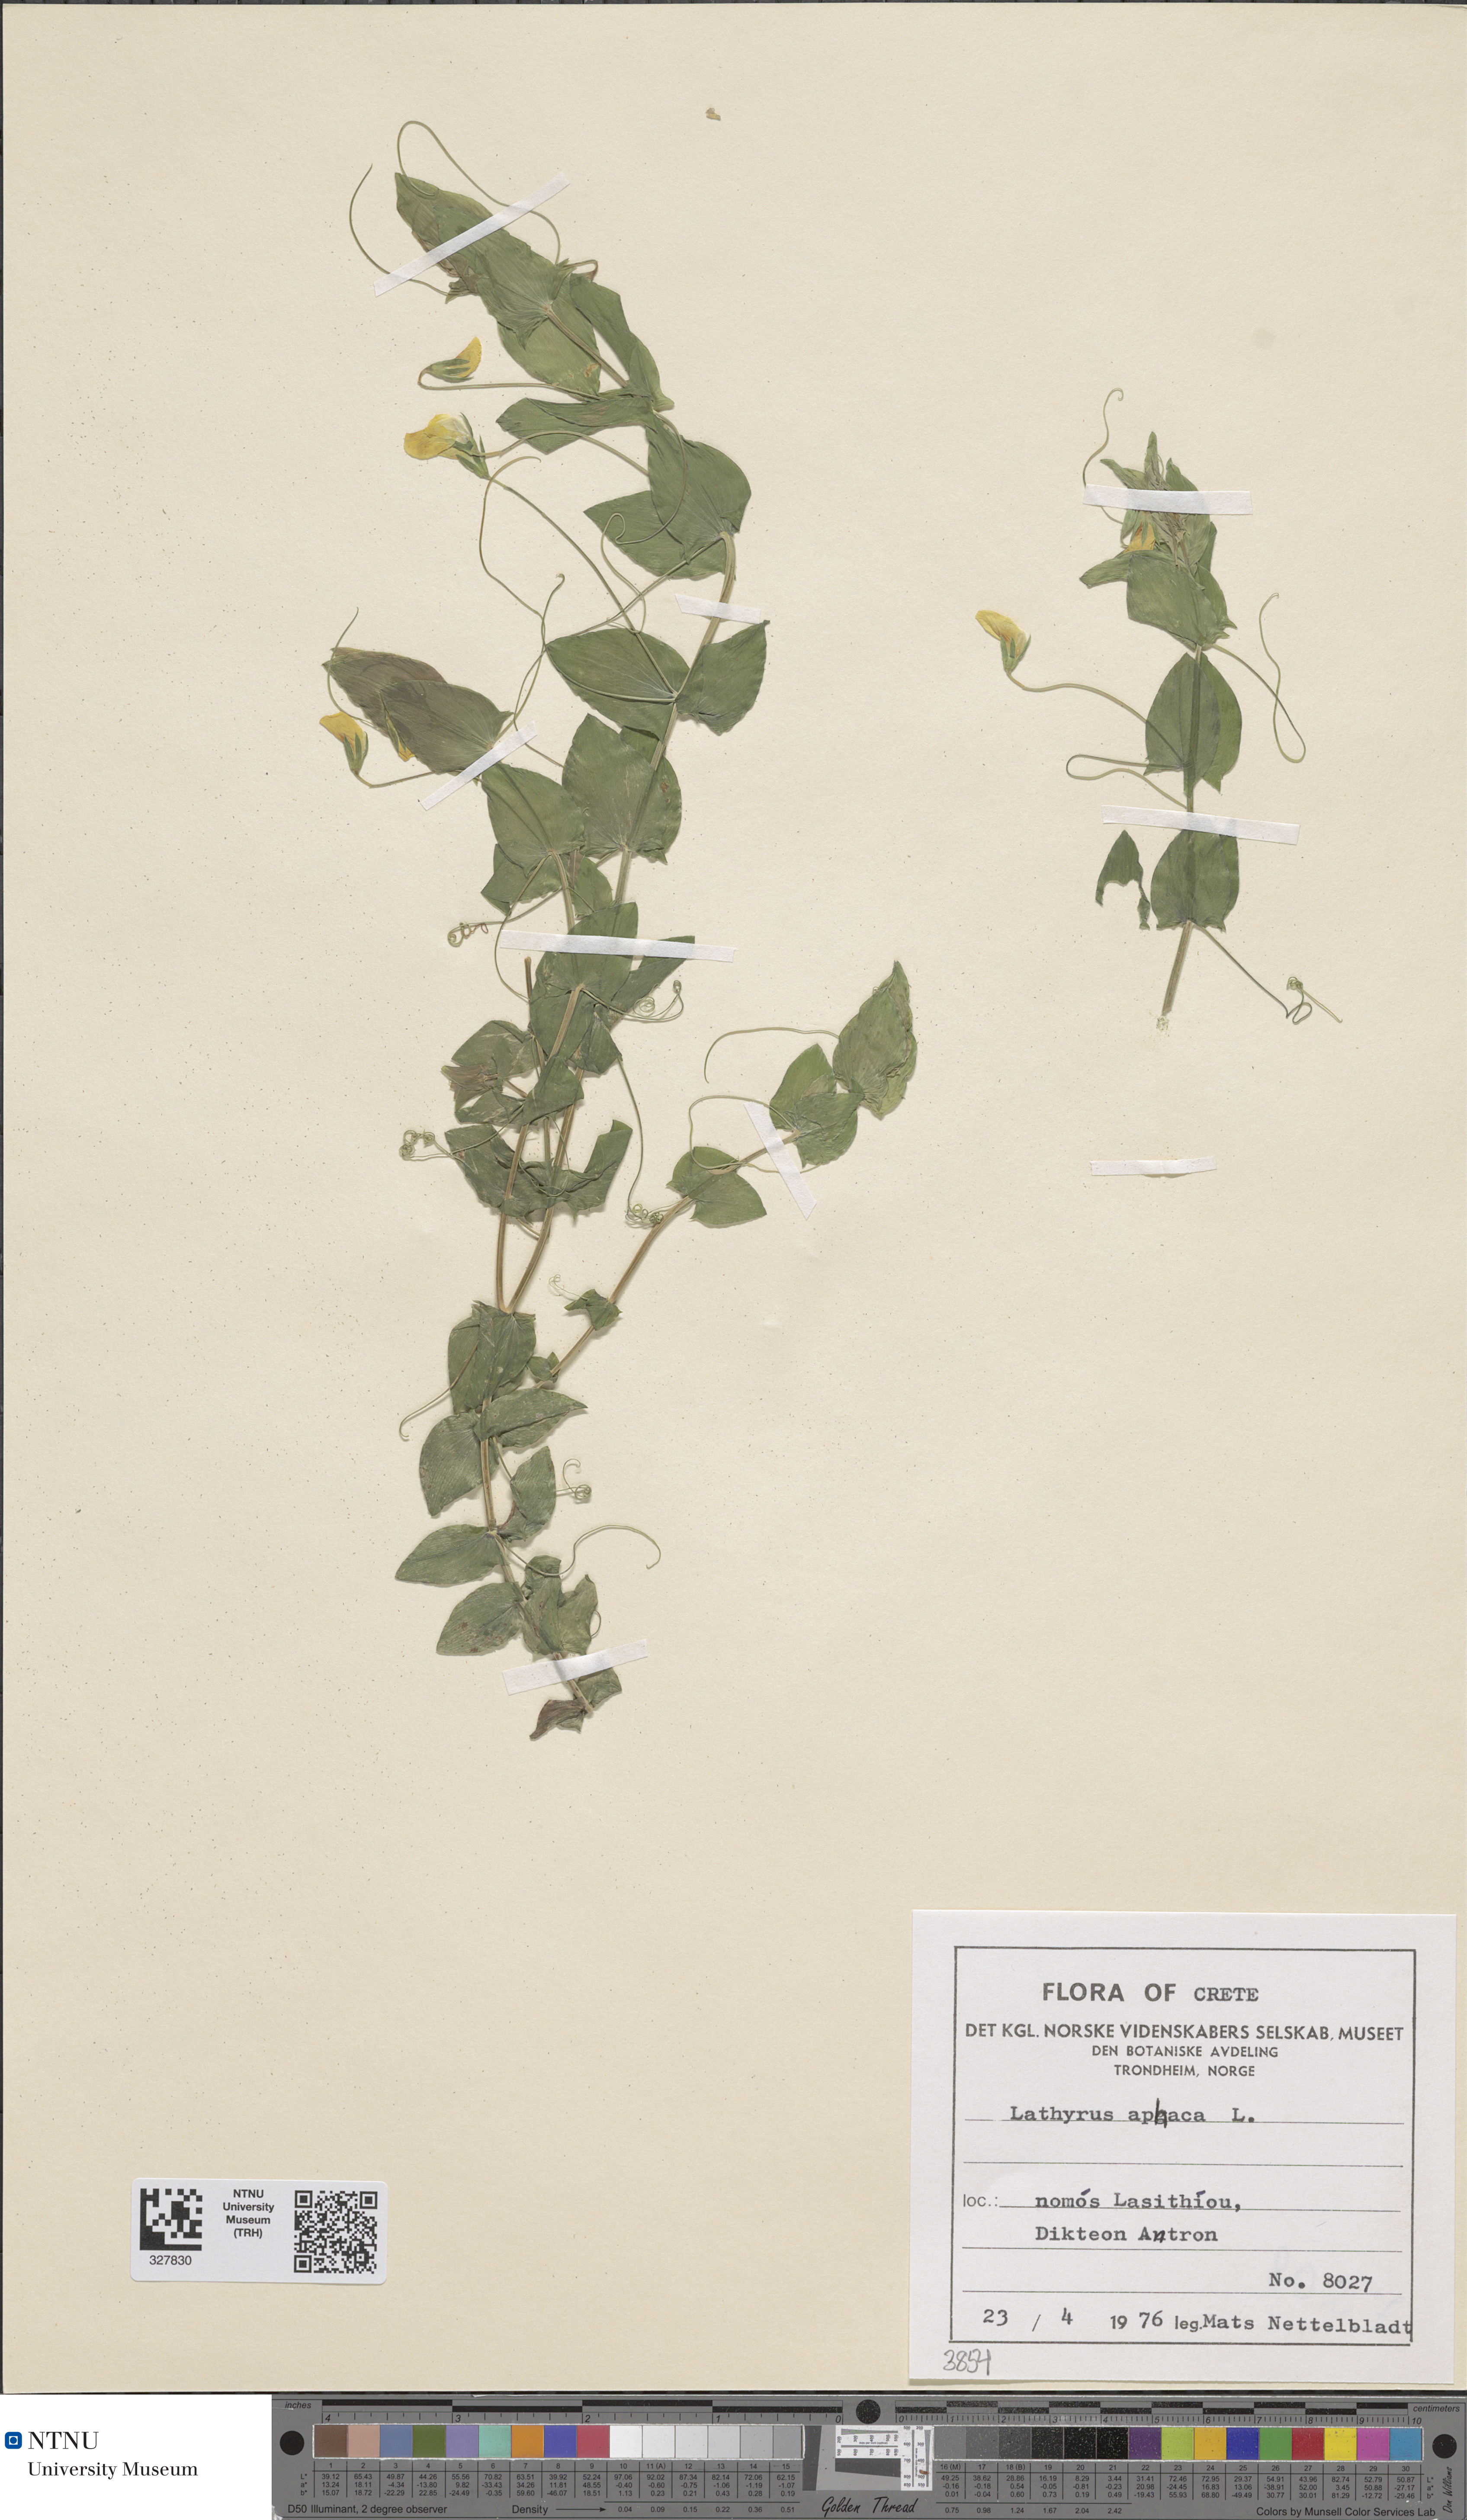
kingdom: Plantae
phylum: Tracheophyta
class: Magnoliopsida
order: Fabales
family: Fabaceae
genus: Lathyrus
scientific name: Lathyrus aphaca
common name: Yellow vetchling
